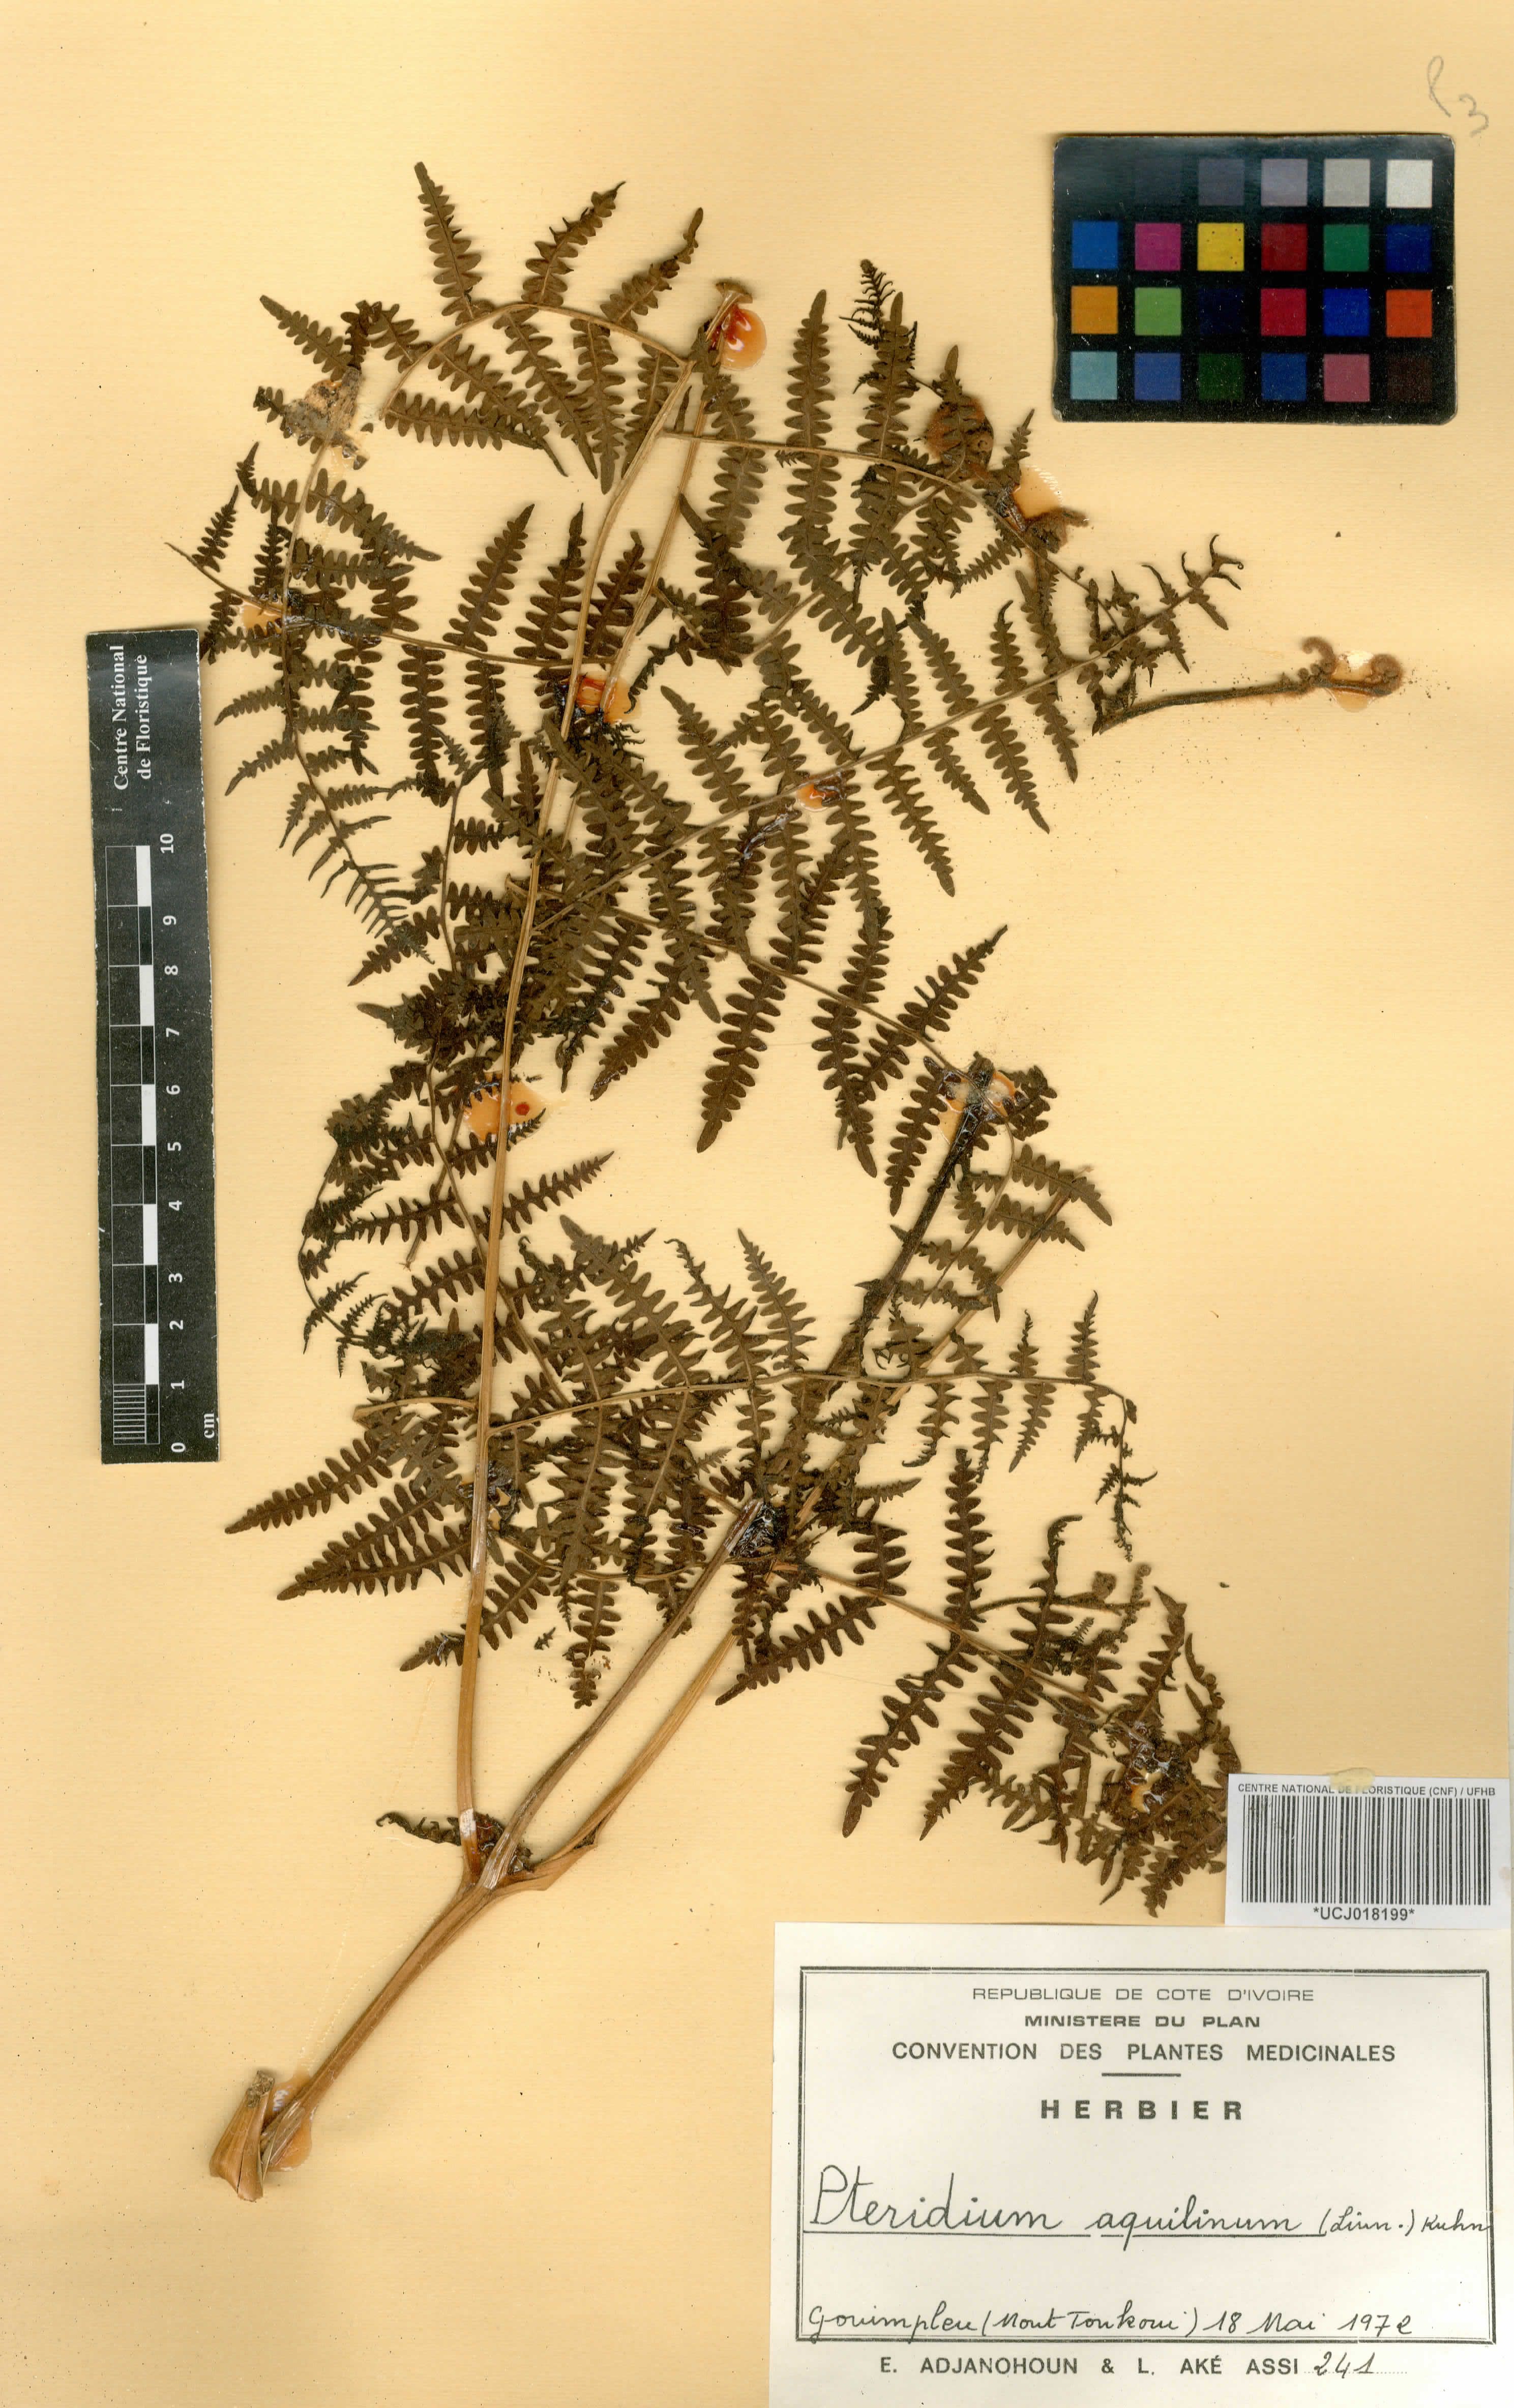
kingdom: Plantae
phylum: Tracheophyta
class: Polypodiopsida
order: Polypodiales
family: Dennstaedtiaceae
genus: Pteridium
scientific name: Pteridium aquilinum
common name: Bracken
